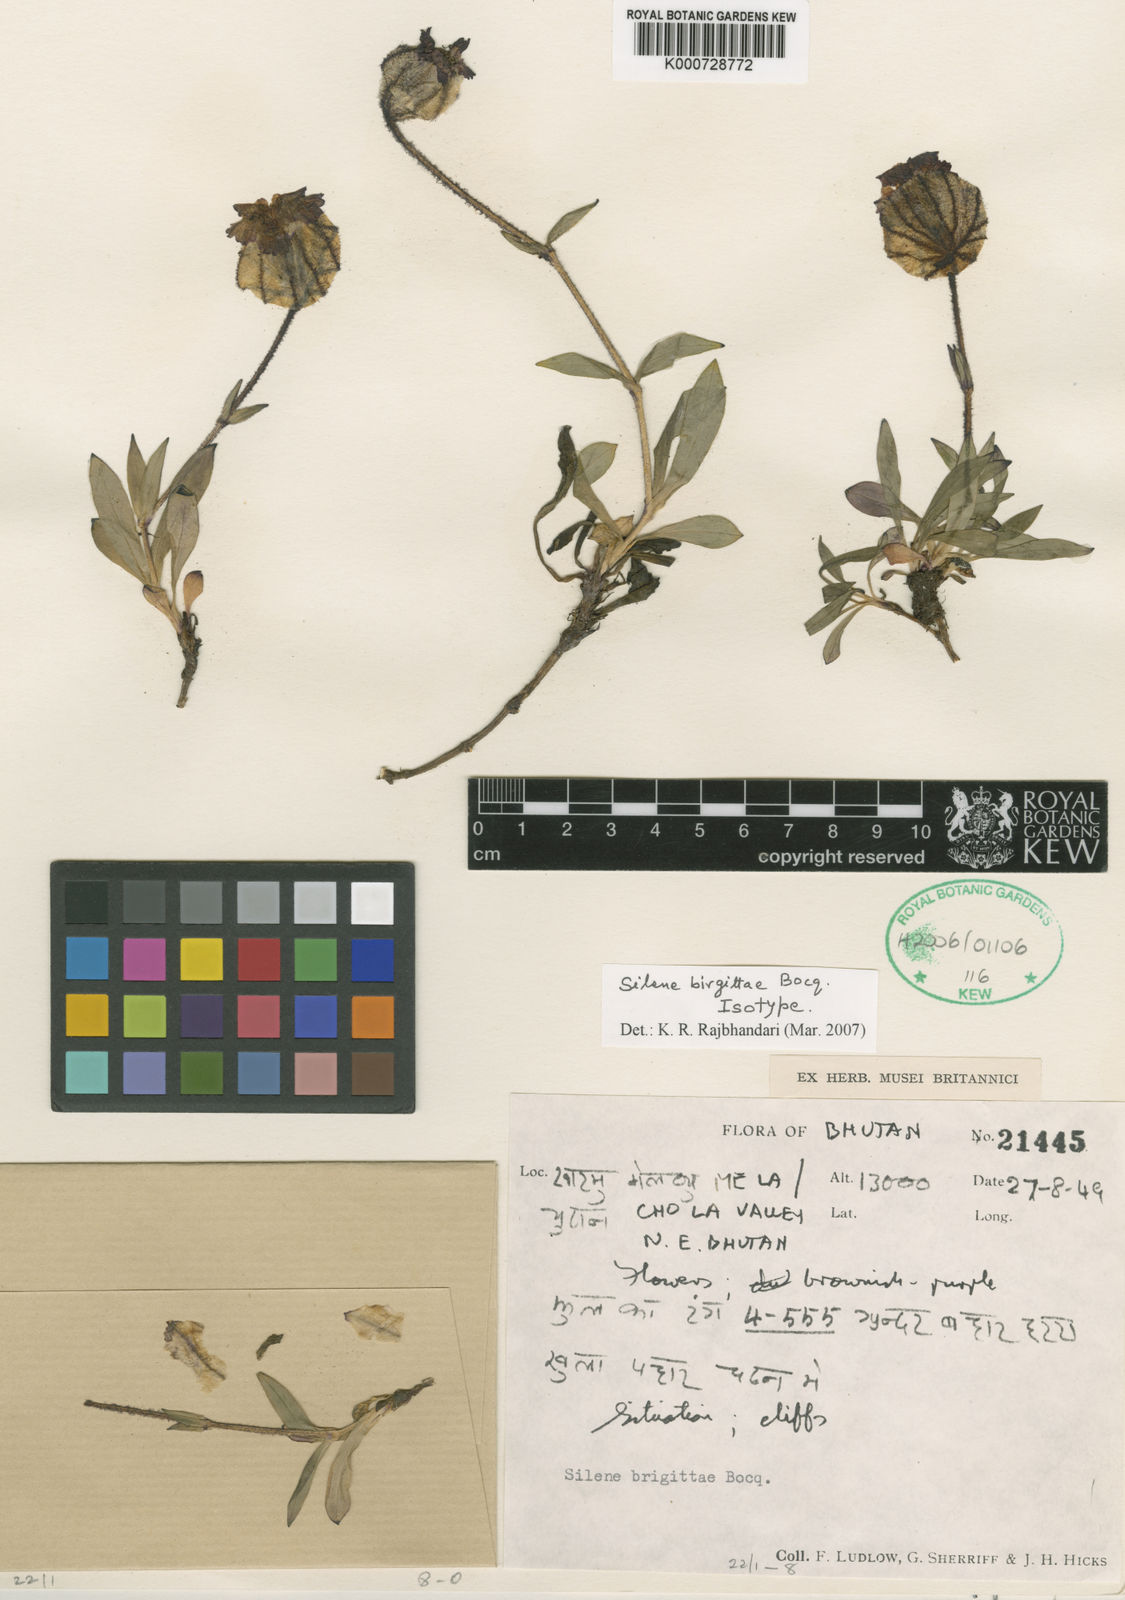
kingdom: Plantae
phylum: Tracheophyta
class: Magnoliopsida
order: Caryophyllales
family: Caryophyllaceae
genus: Silene
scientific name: Silene
